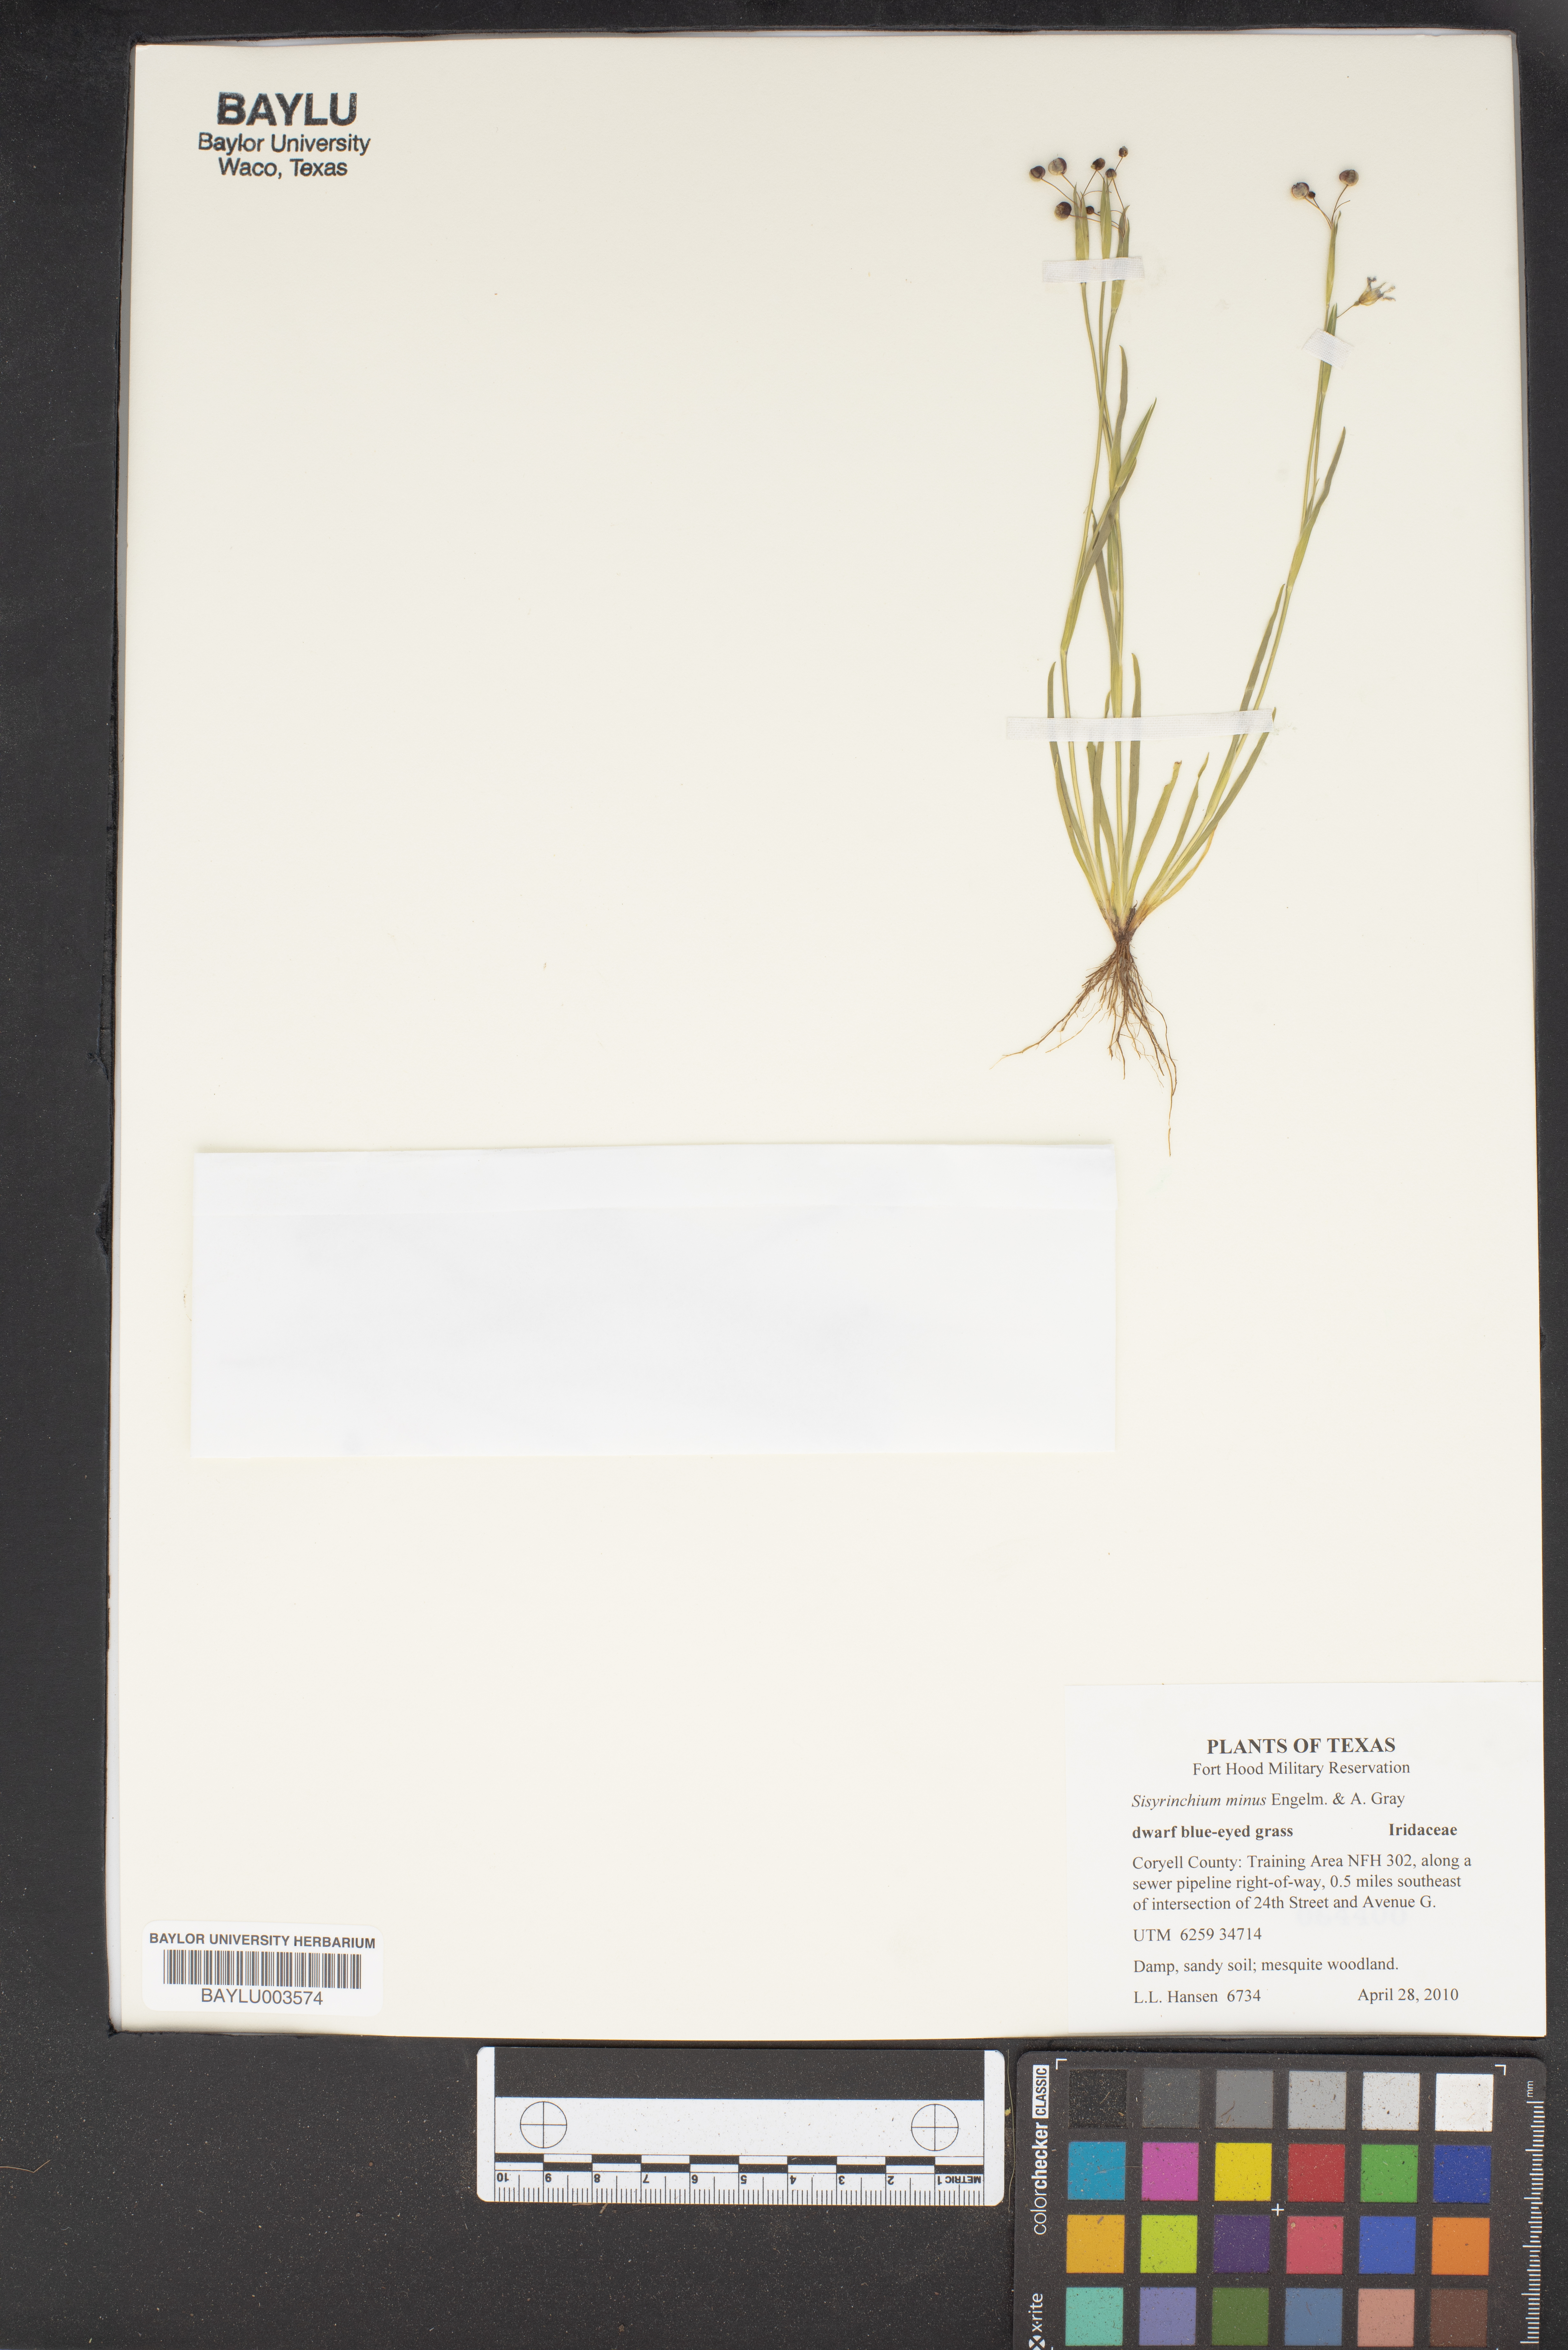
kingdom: Plantae
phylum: Tracheophyta
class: Liliopsida
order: Asparagales
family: Iridaceae
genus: Sisyrinchium
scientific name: Sisyrinchium minus
